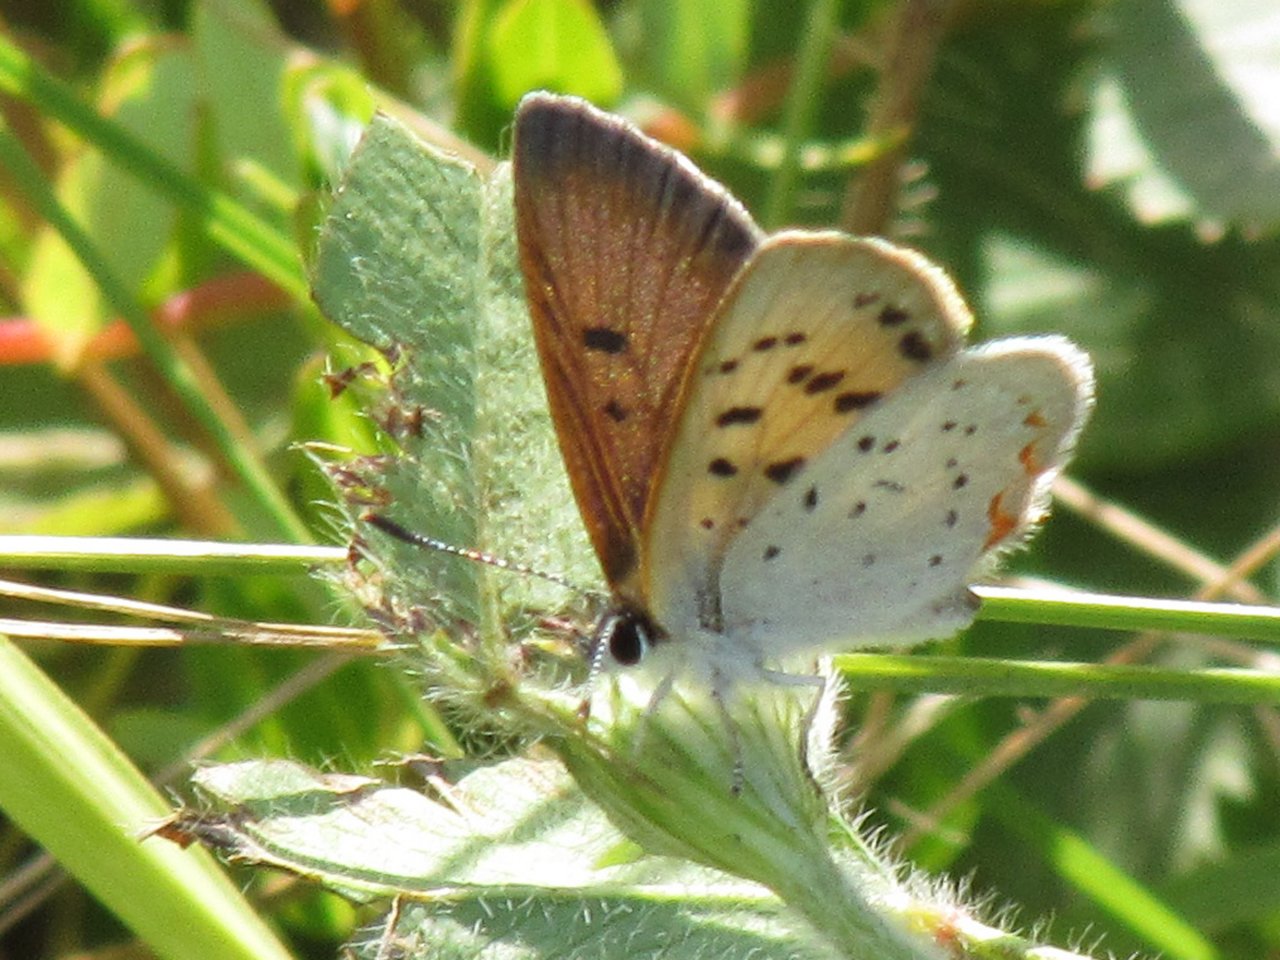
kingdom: Animalia
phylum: Arthropoda
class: Insecta
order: Lepidoptera
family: Sesiidae
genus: Sesia
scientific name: Sesia Lycaena epixanthe
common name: Bog Copper
